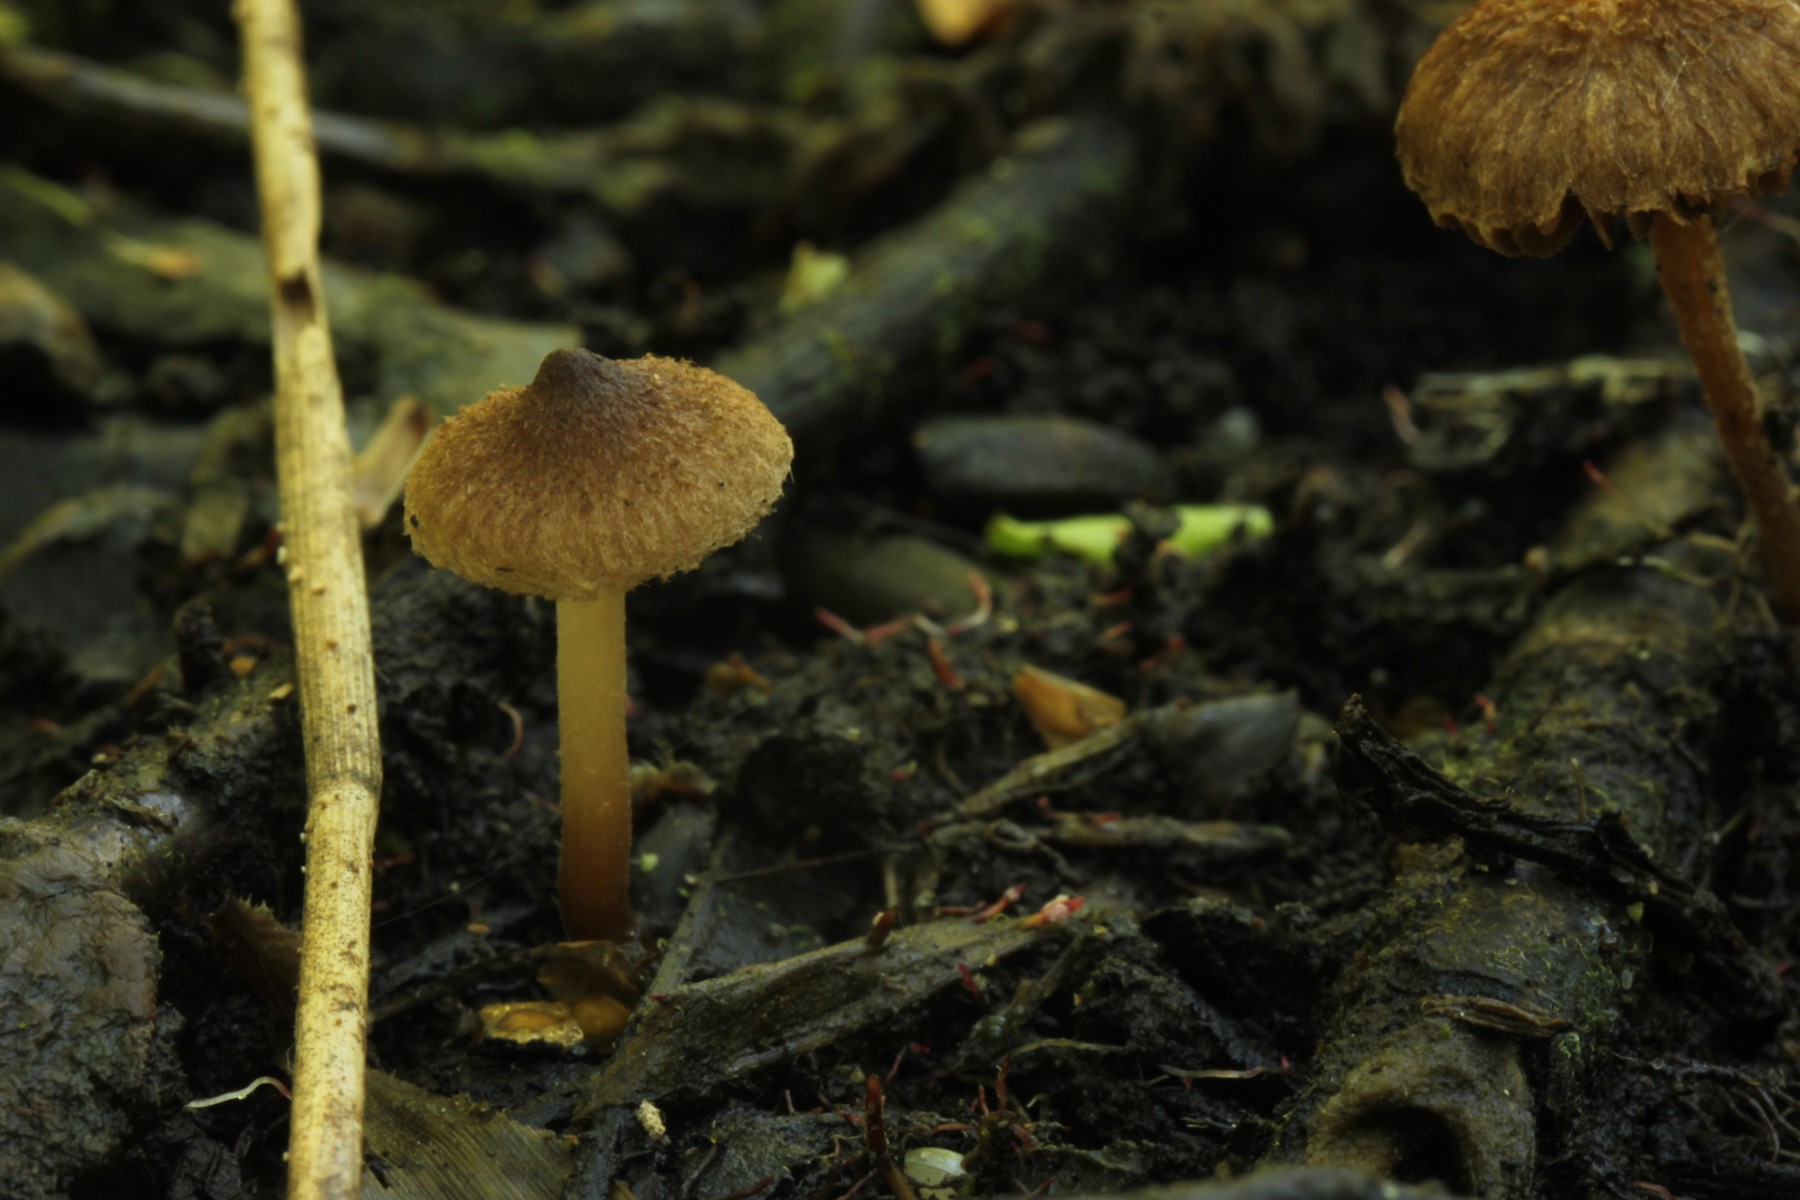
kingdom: Fungi
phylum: Basidiomycota
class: Agaricomycetes
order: Agaricales
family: Inocybaceae
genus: Inocybe
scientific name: Inocybe lacera
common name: laset trævlhat
